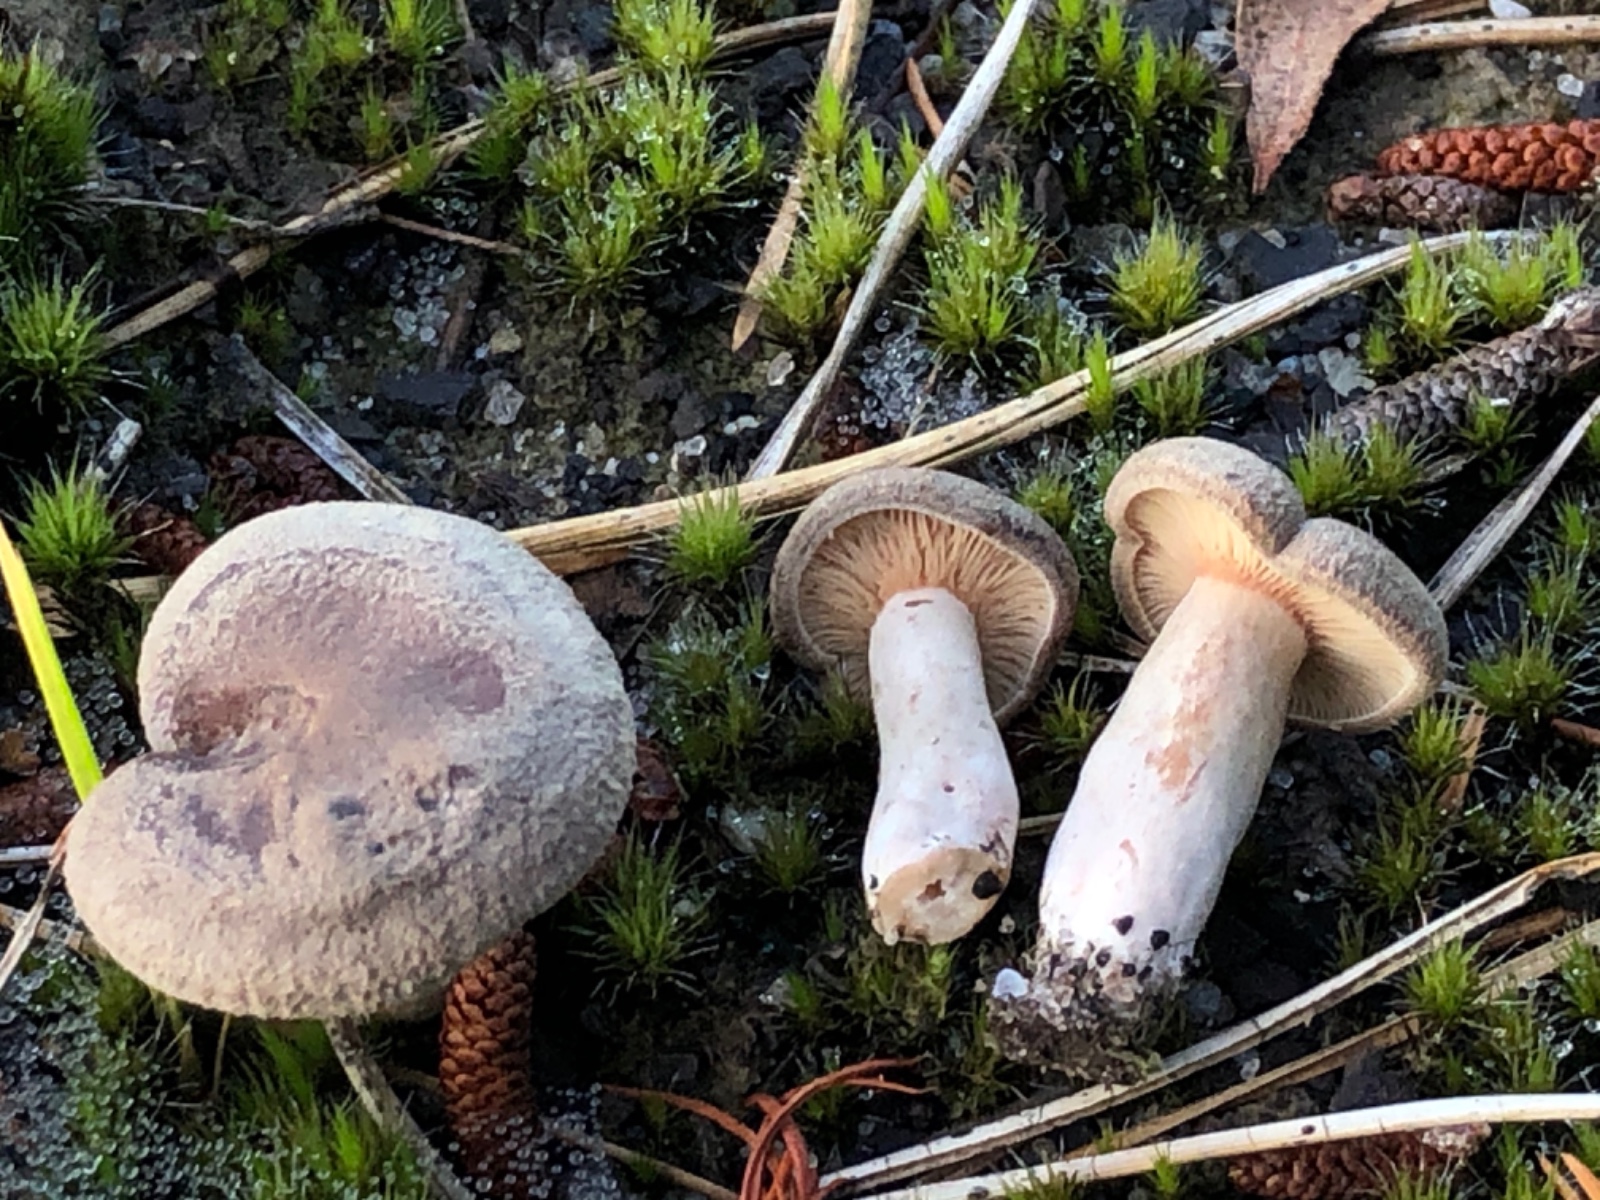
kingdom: Fungi
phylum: Basidiomycota
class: Agaricomycetes
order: Russulales
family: Russulaceae
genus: Lactarius
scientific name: Lactarius helvus
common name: mose-mælkehat
